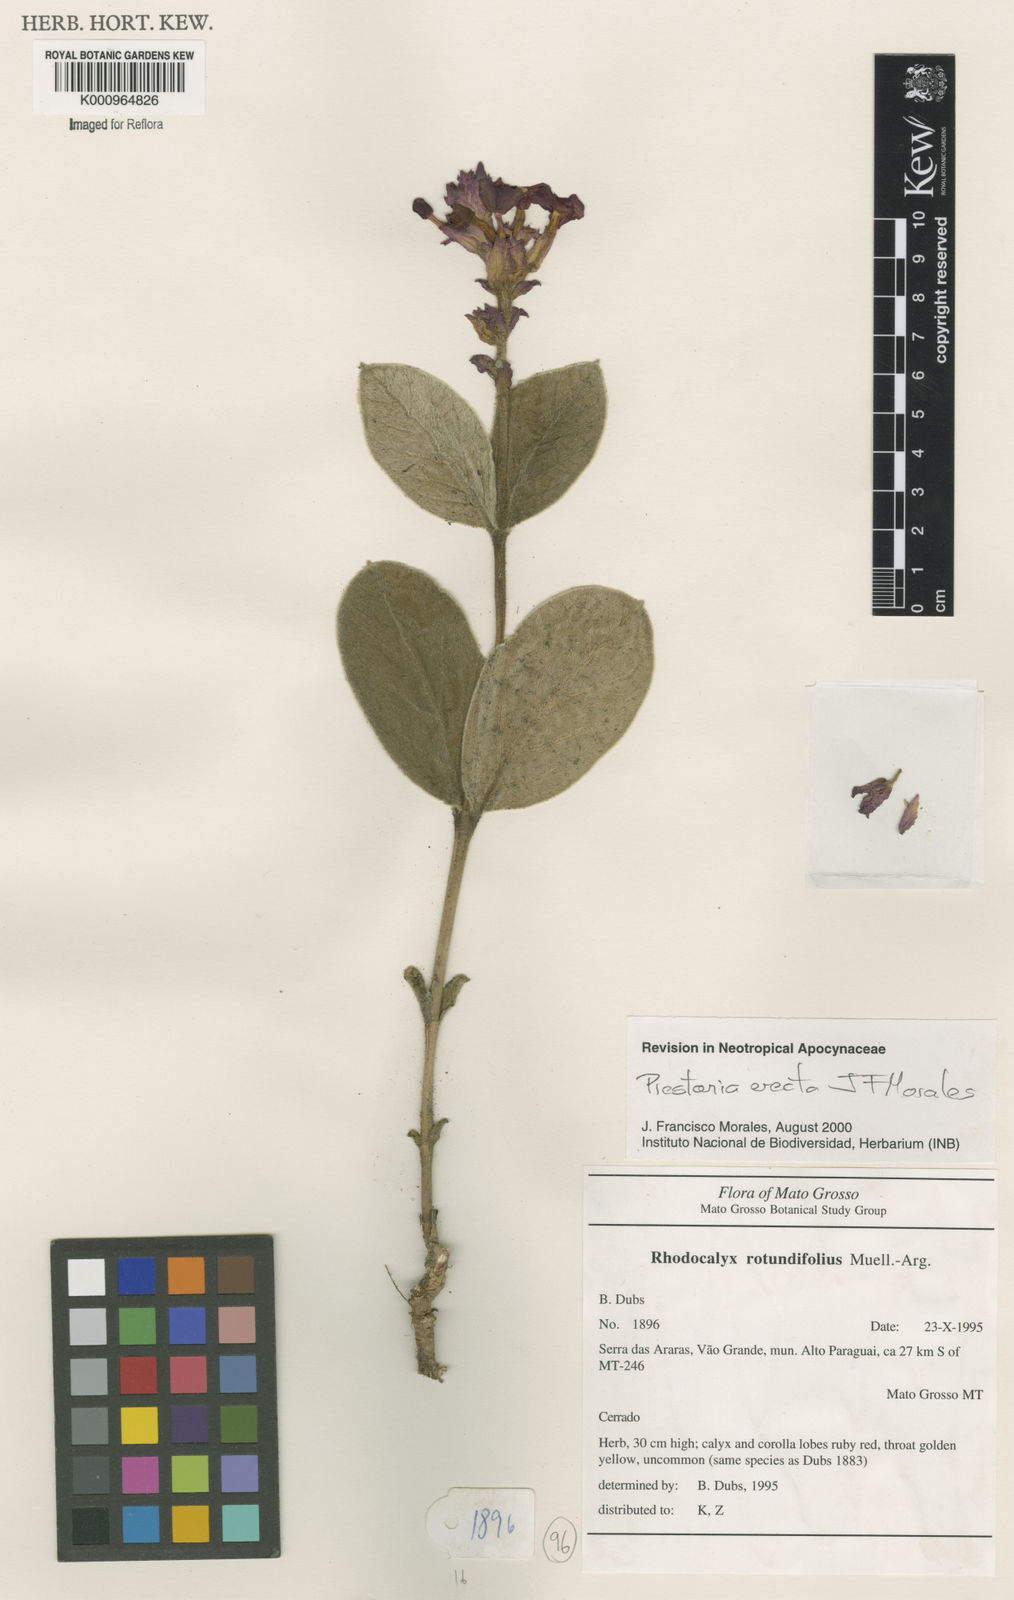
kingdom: Plantae
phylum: Tracheophyta
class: Magnoliopsida
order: Gentianales
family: Apocynaceae
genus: Rhodocalyx
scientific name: Rhodocalyx
